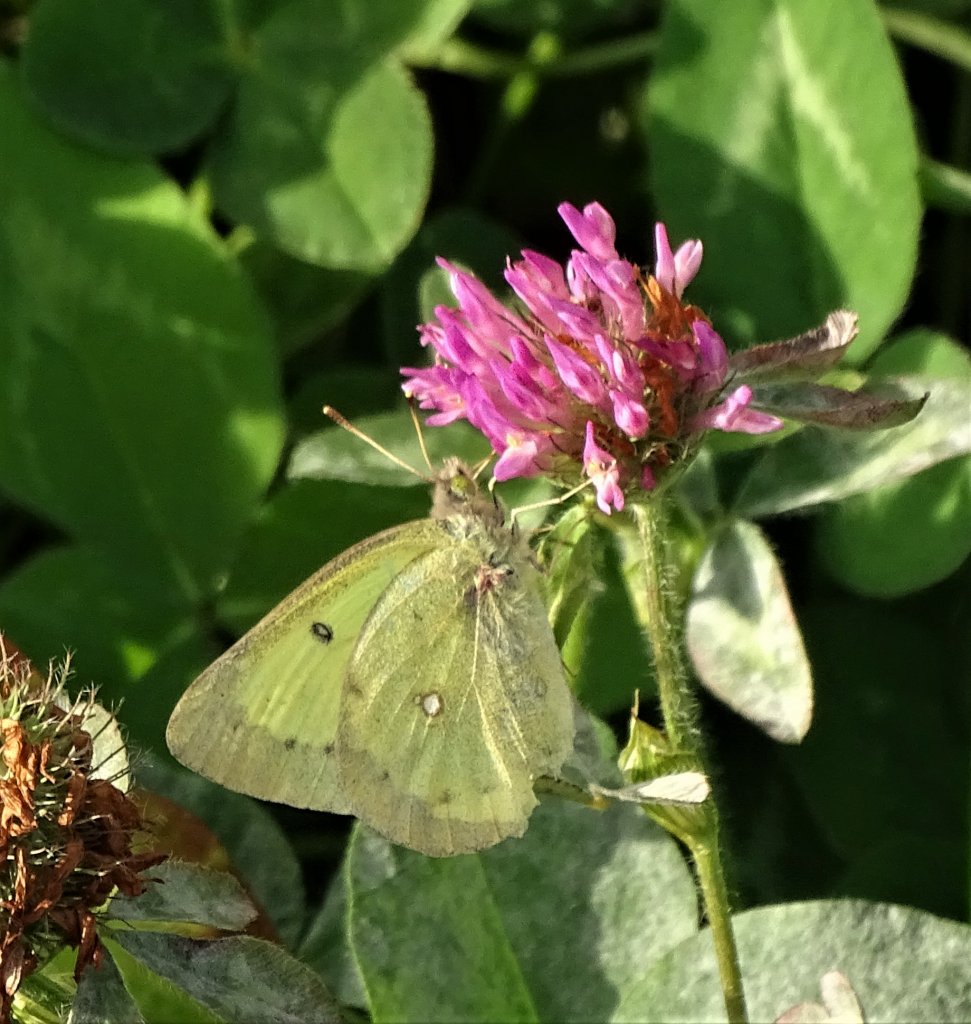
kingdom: Animalia
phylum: Arthropoda
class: Insecta
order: Lepidoptera
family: Pieridae
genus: Colias
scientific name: Colias philodice
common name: Clouded Sulphur
